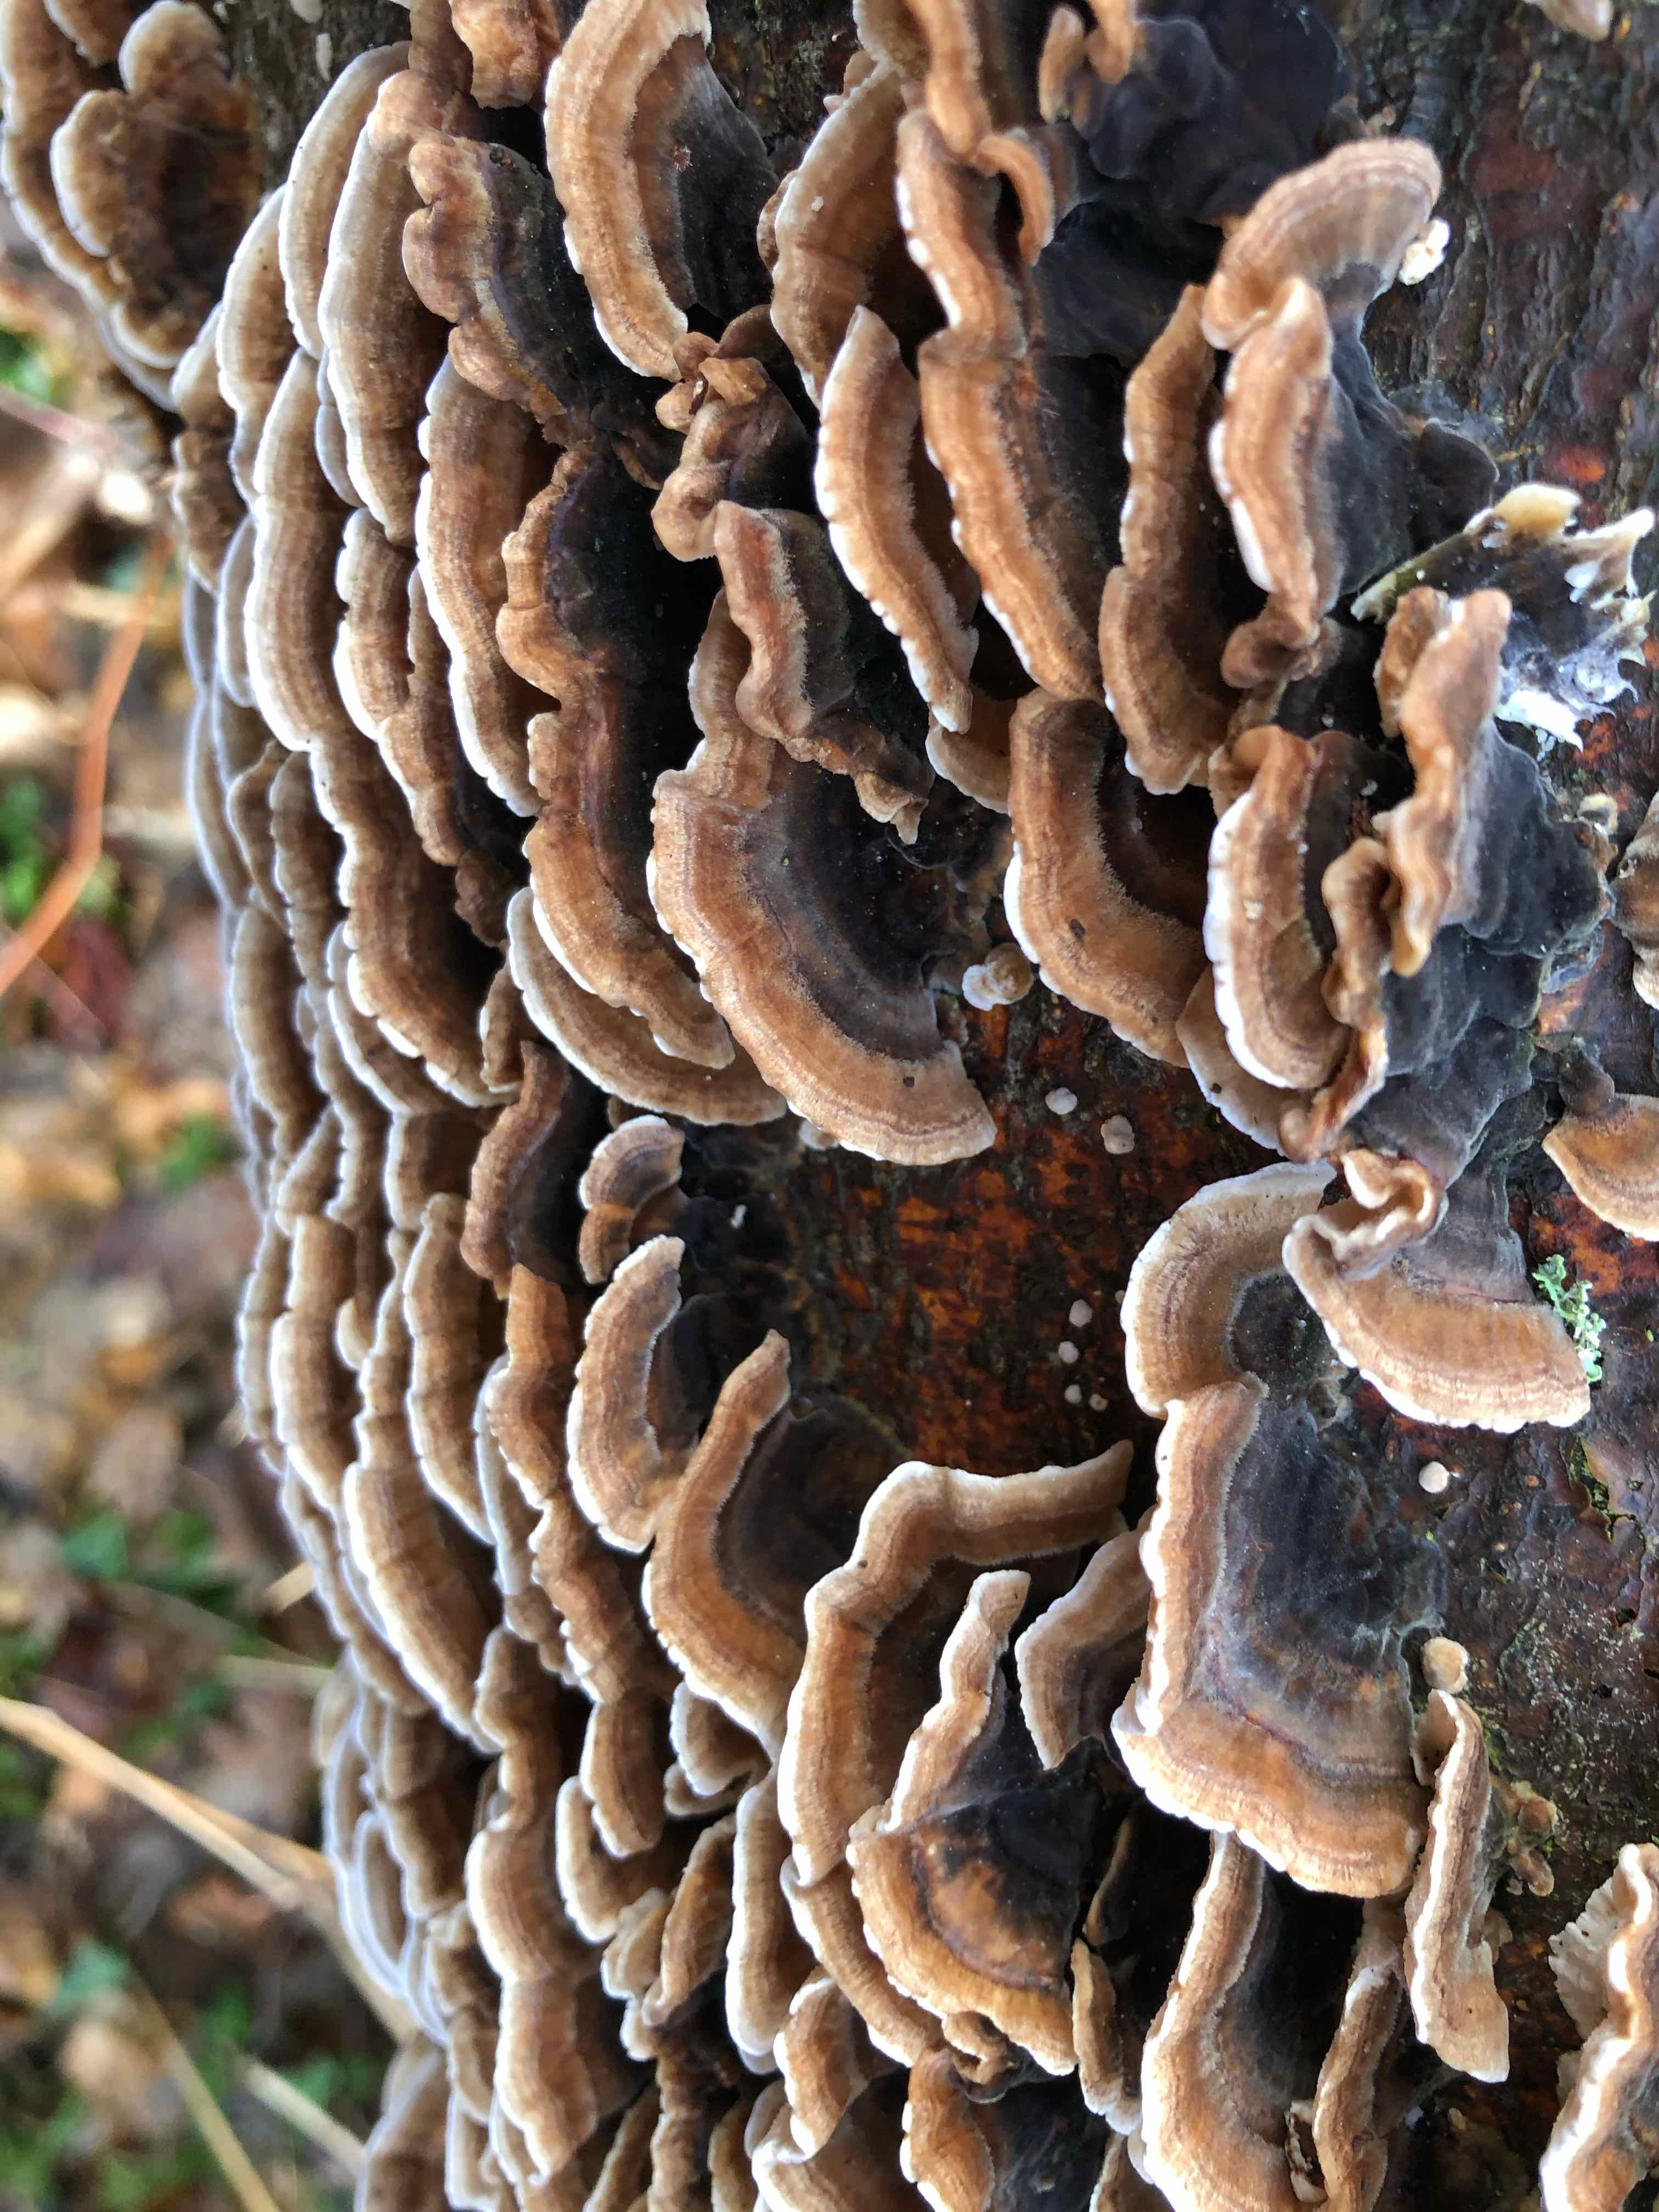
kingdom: Fungi
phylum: Basidiomycota
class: Agaricomycetes
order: Polyporales
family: Polyporaceae
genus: Trametes
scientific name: Trametes versicolor
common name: broget læderporesvamp
